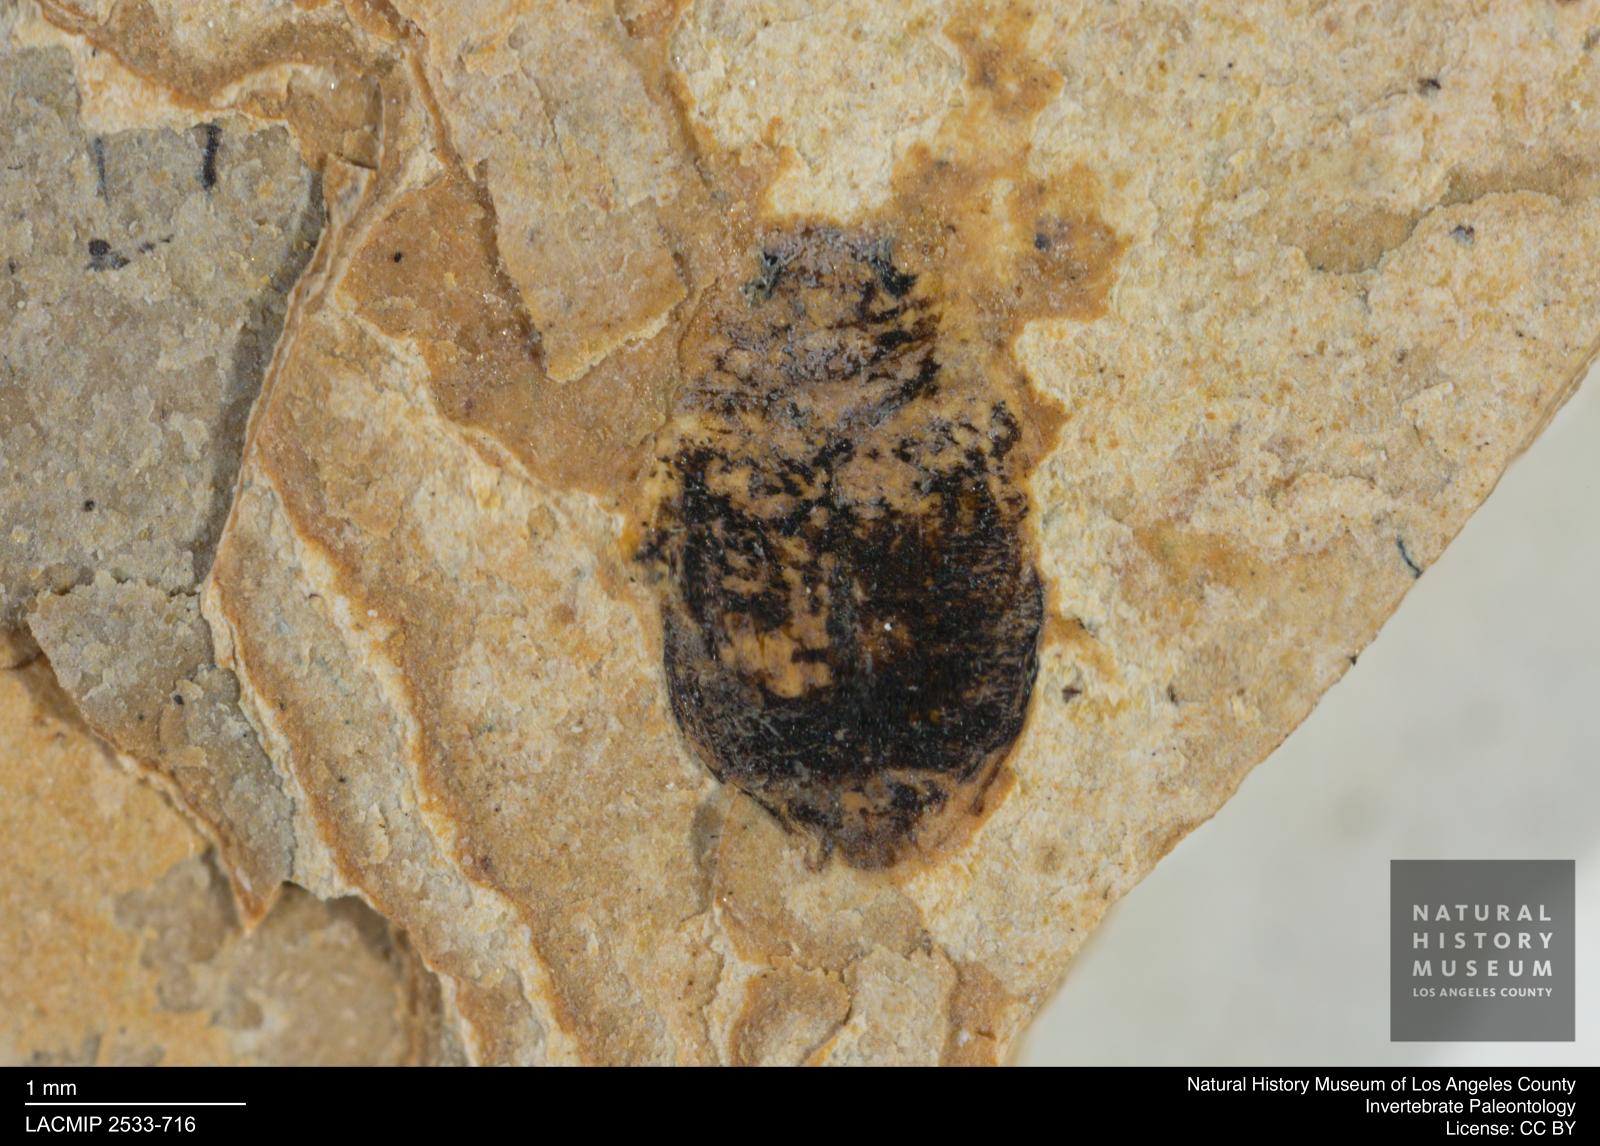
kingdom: Animalia
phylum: Arthropoda
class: Insecta
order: Coleoptera
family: Dytiscidae
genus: Oreodytes
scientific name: Oreodytes cryptolineatus
